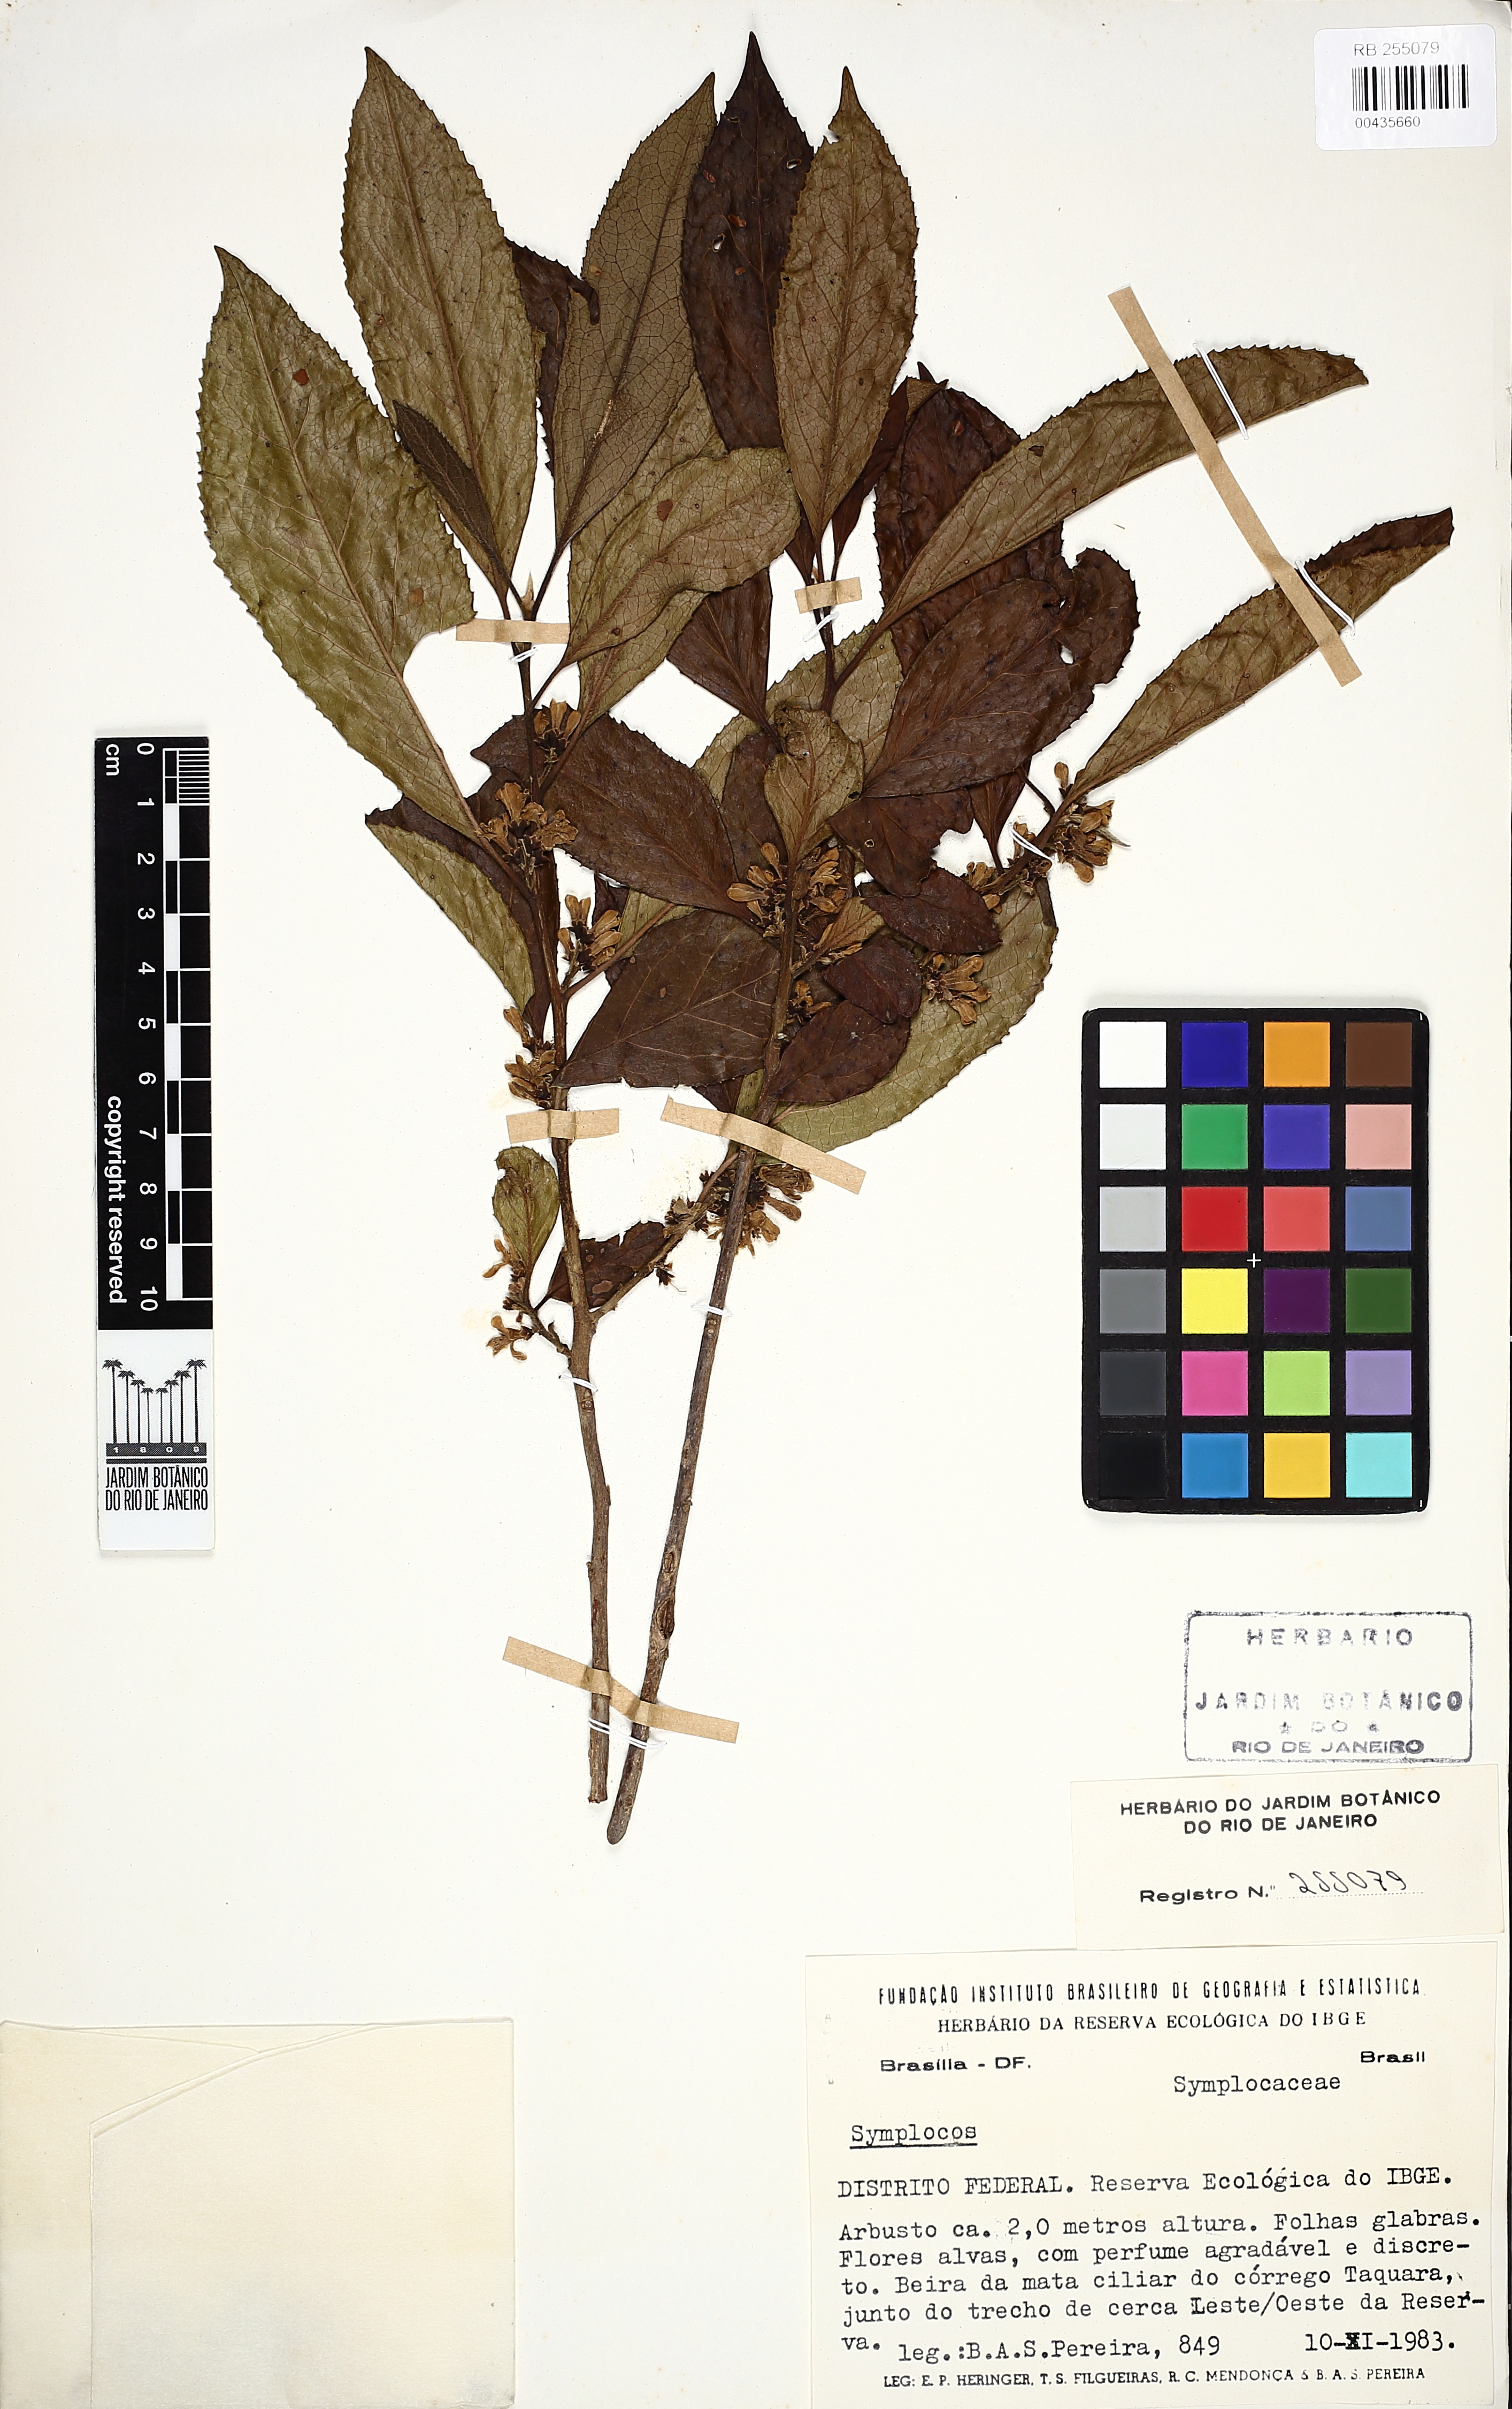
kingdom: Plantae
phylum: Tracheophyta
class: Magnoliopsida
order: Ericales
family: Symplocaceae
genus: Symplocos
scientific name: Symplocos
